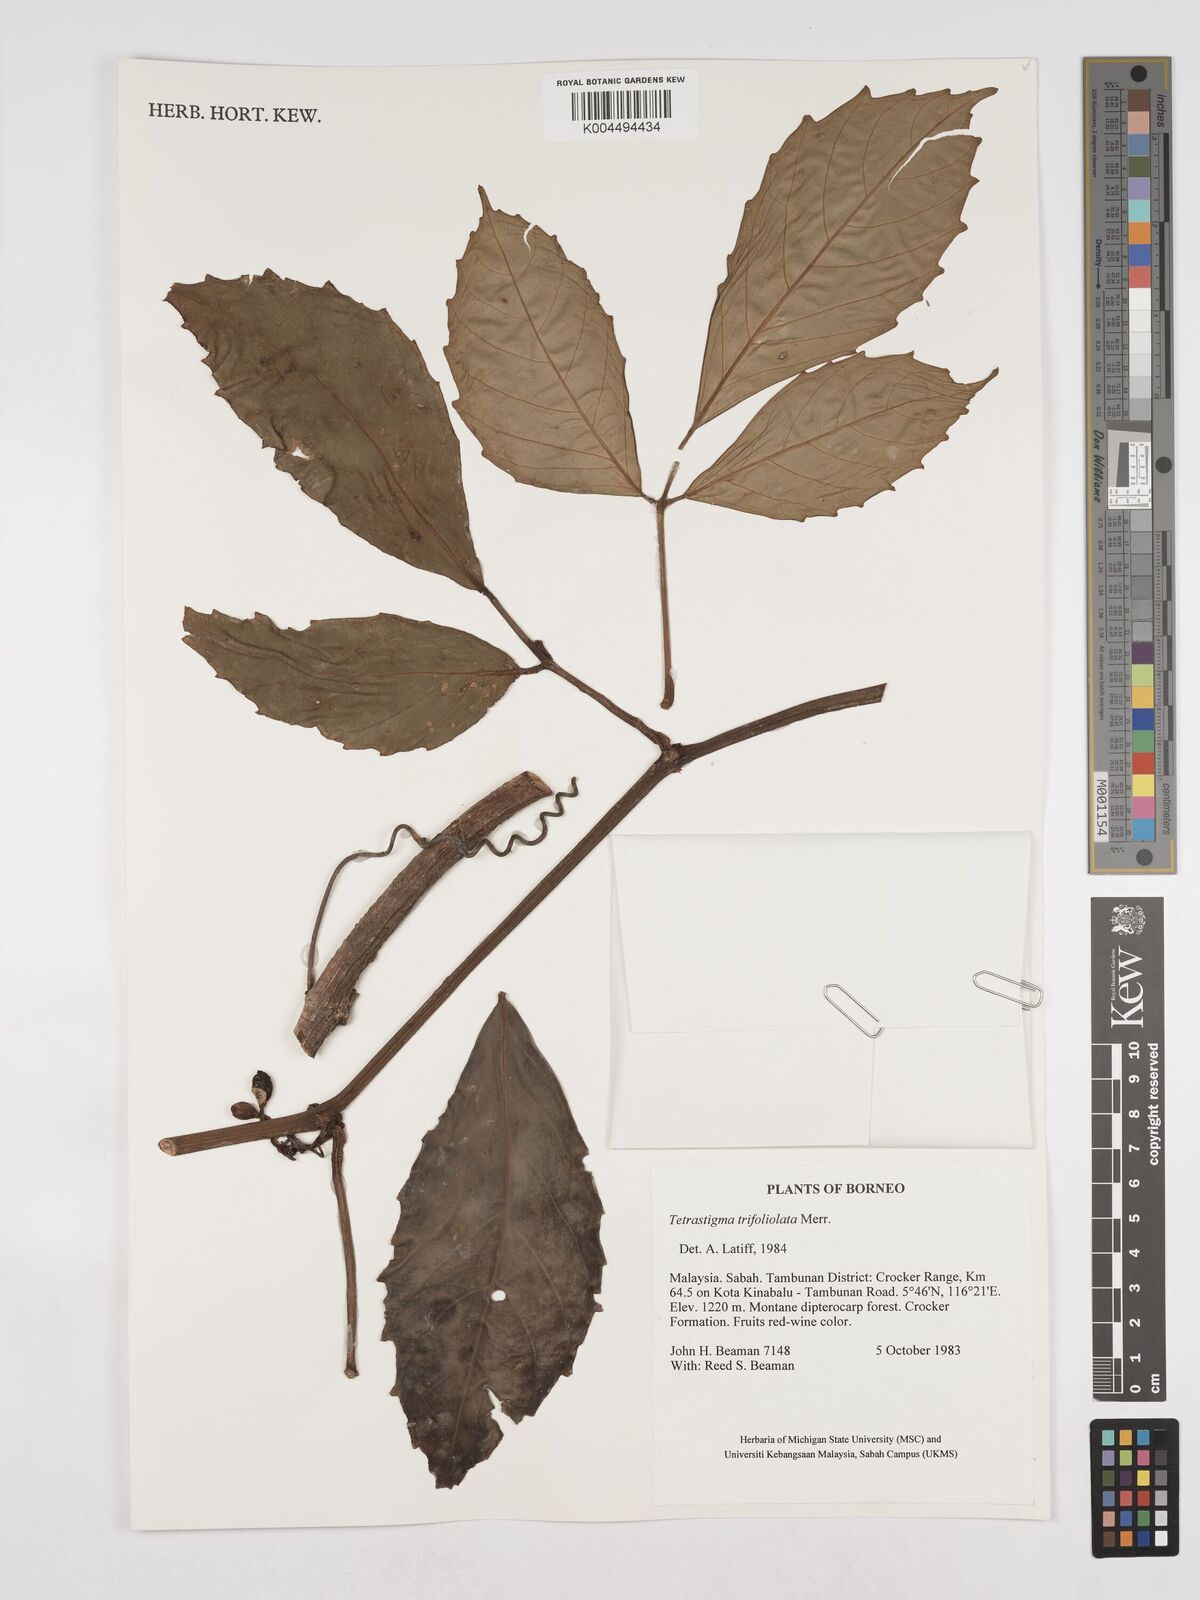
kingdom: Plantae
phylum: Tracheophyta
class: Magnoliopsida
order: Vitales
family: Vitaceae
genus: Tetrastigma
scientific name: Tetrastigma
